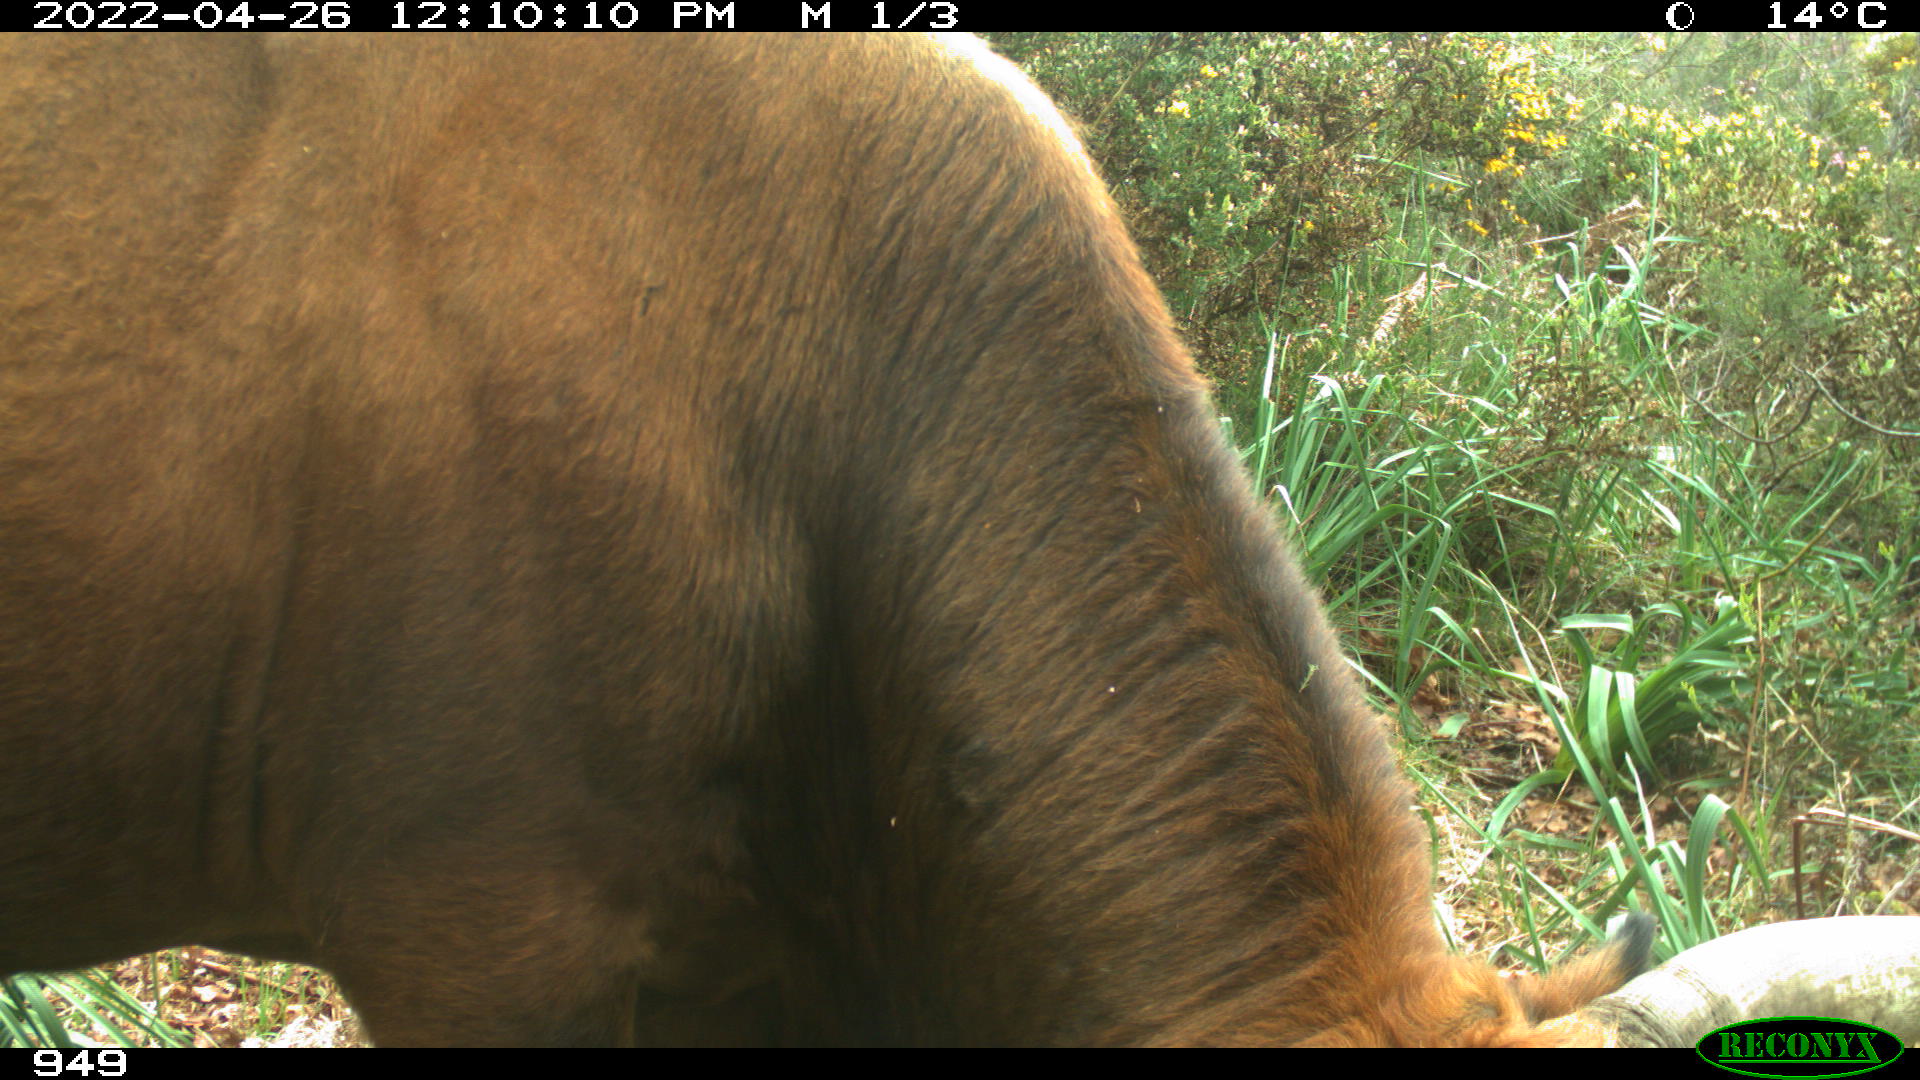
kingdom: Animalia
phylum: Chordata
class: Mammalia
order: Artiodactyla
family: Bovidae
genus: Bos
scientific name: Bos taurus
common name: Domesticated cattle
